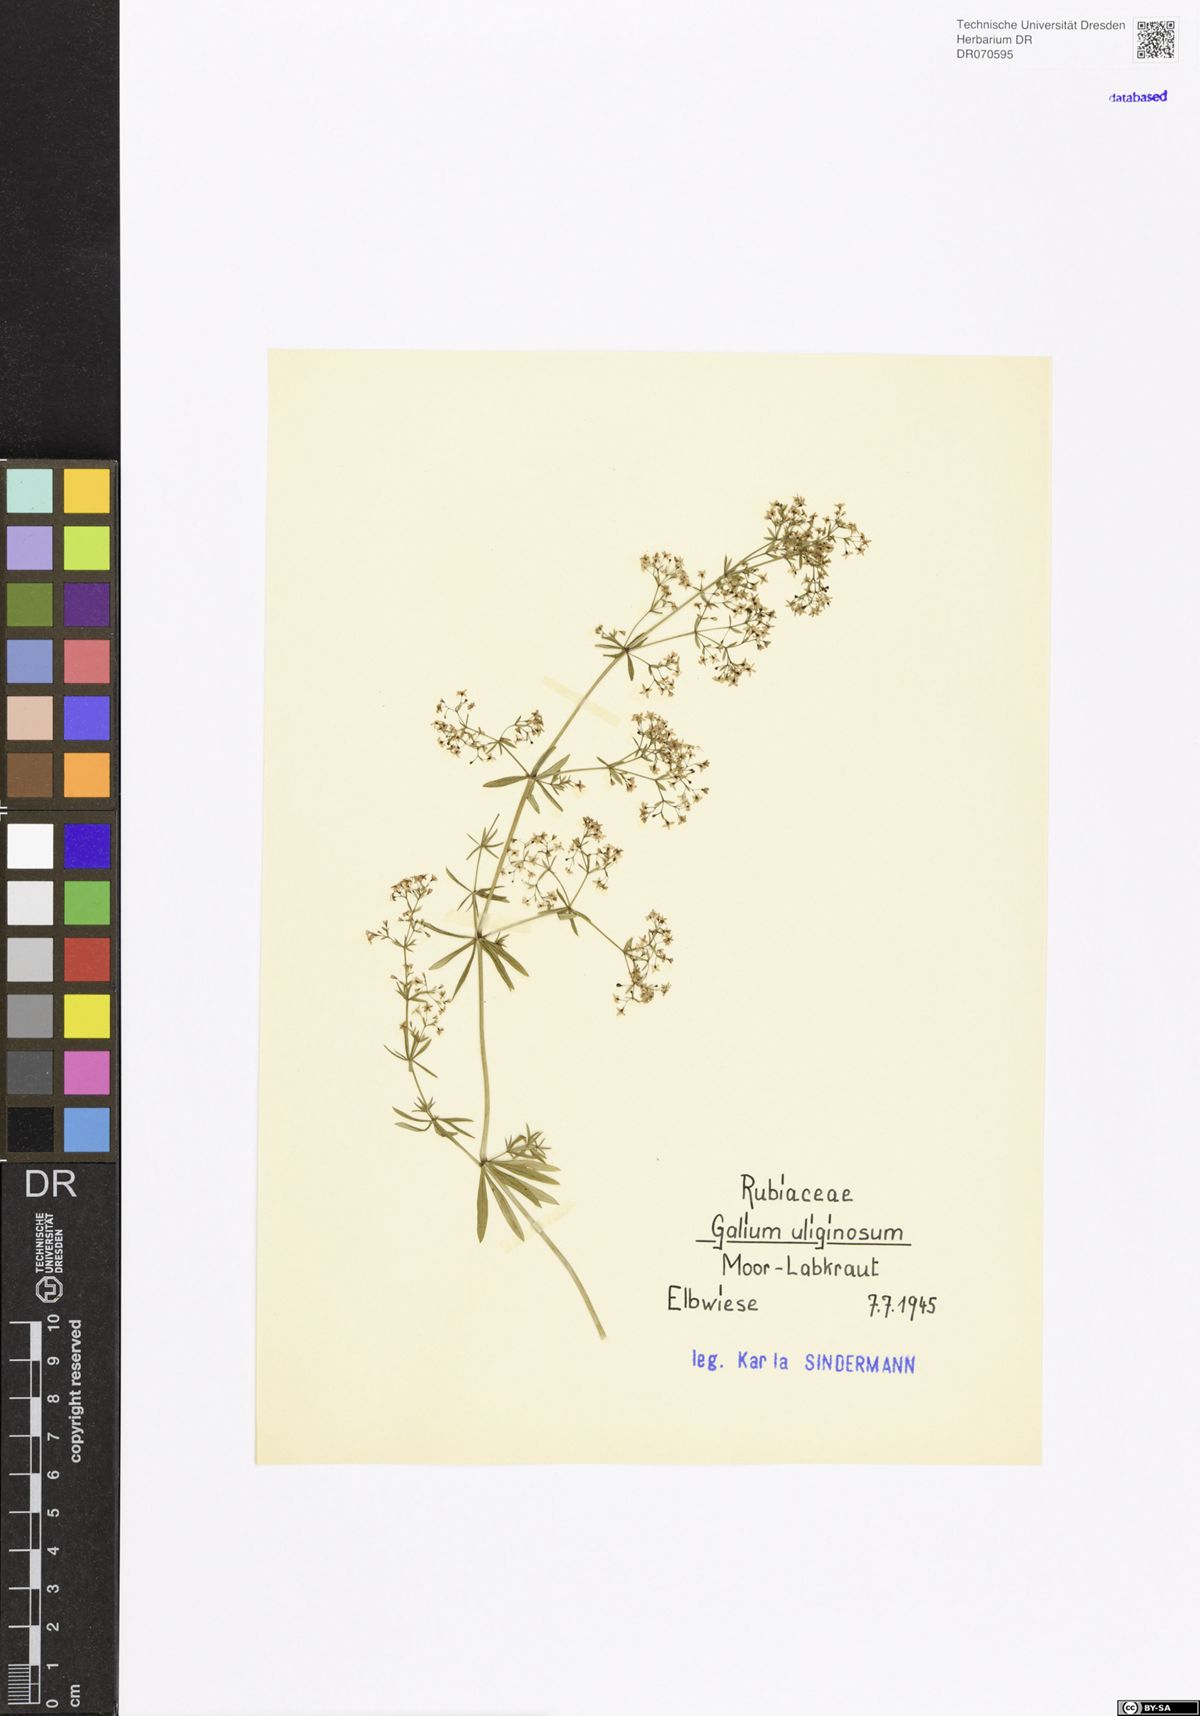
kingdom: Plantae
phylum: Tracheophyta
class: Magnoliopsida
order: Gentianales
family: Rubiaceae
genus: Galium
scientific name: Galium uliginosum
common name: Fen bedstraw
